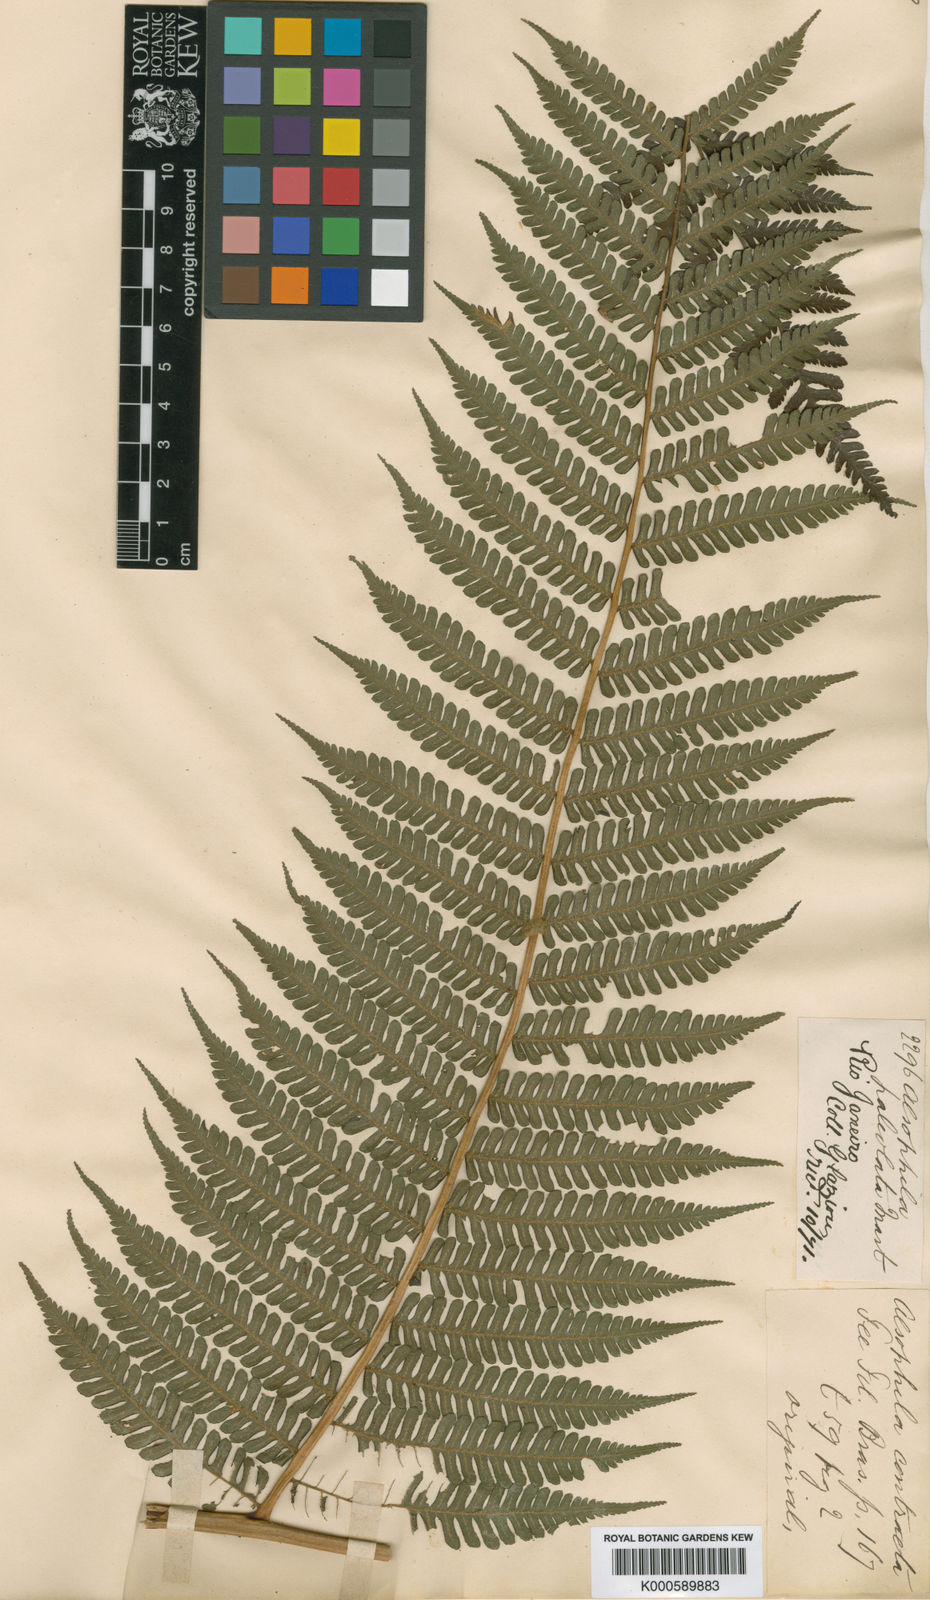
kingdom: Plantae
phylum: Tracheophyta
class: Polypodiopsida
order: Cyatheales
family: Cyatheaceae
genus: Cyathea
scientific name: Cyathea phalerata
